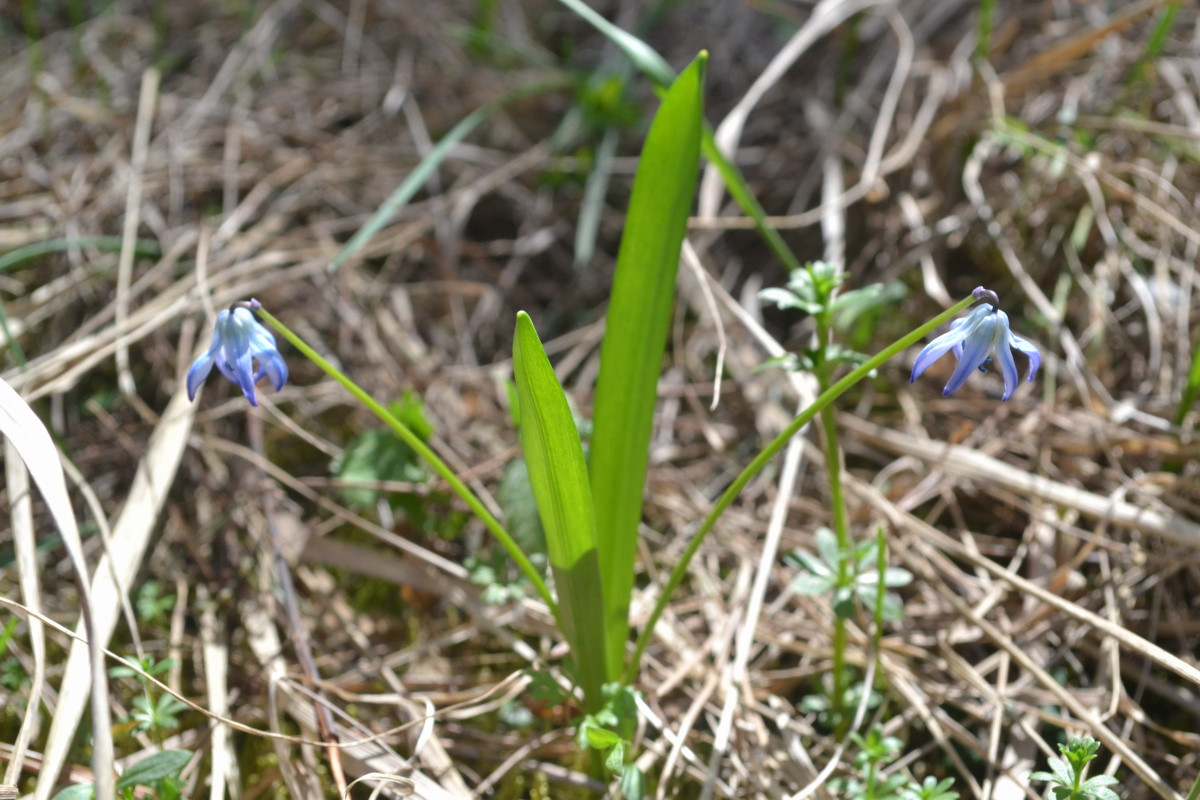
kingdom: Plantae
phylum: Tracheophyta
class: Liliopsida
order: Asparagales
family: Asparagaceae
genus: Scilla
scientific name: Scilla siberica
